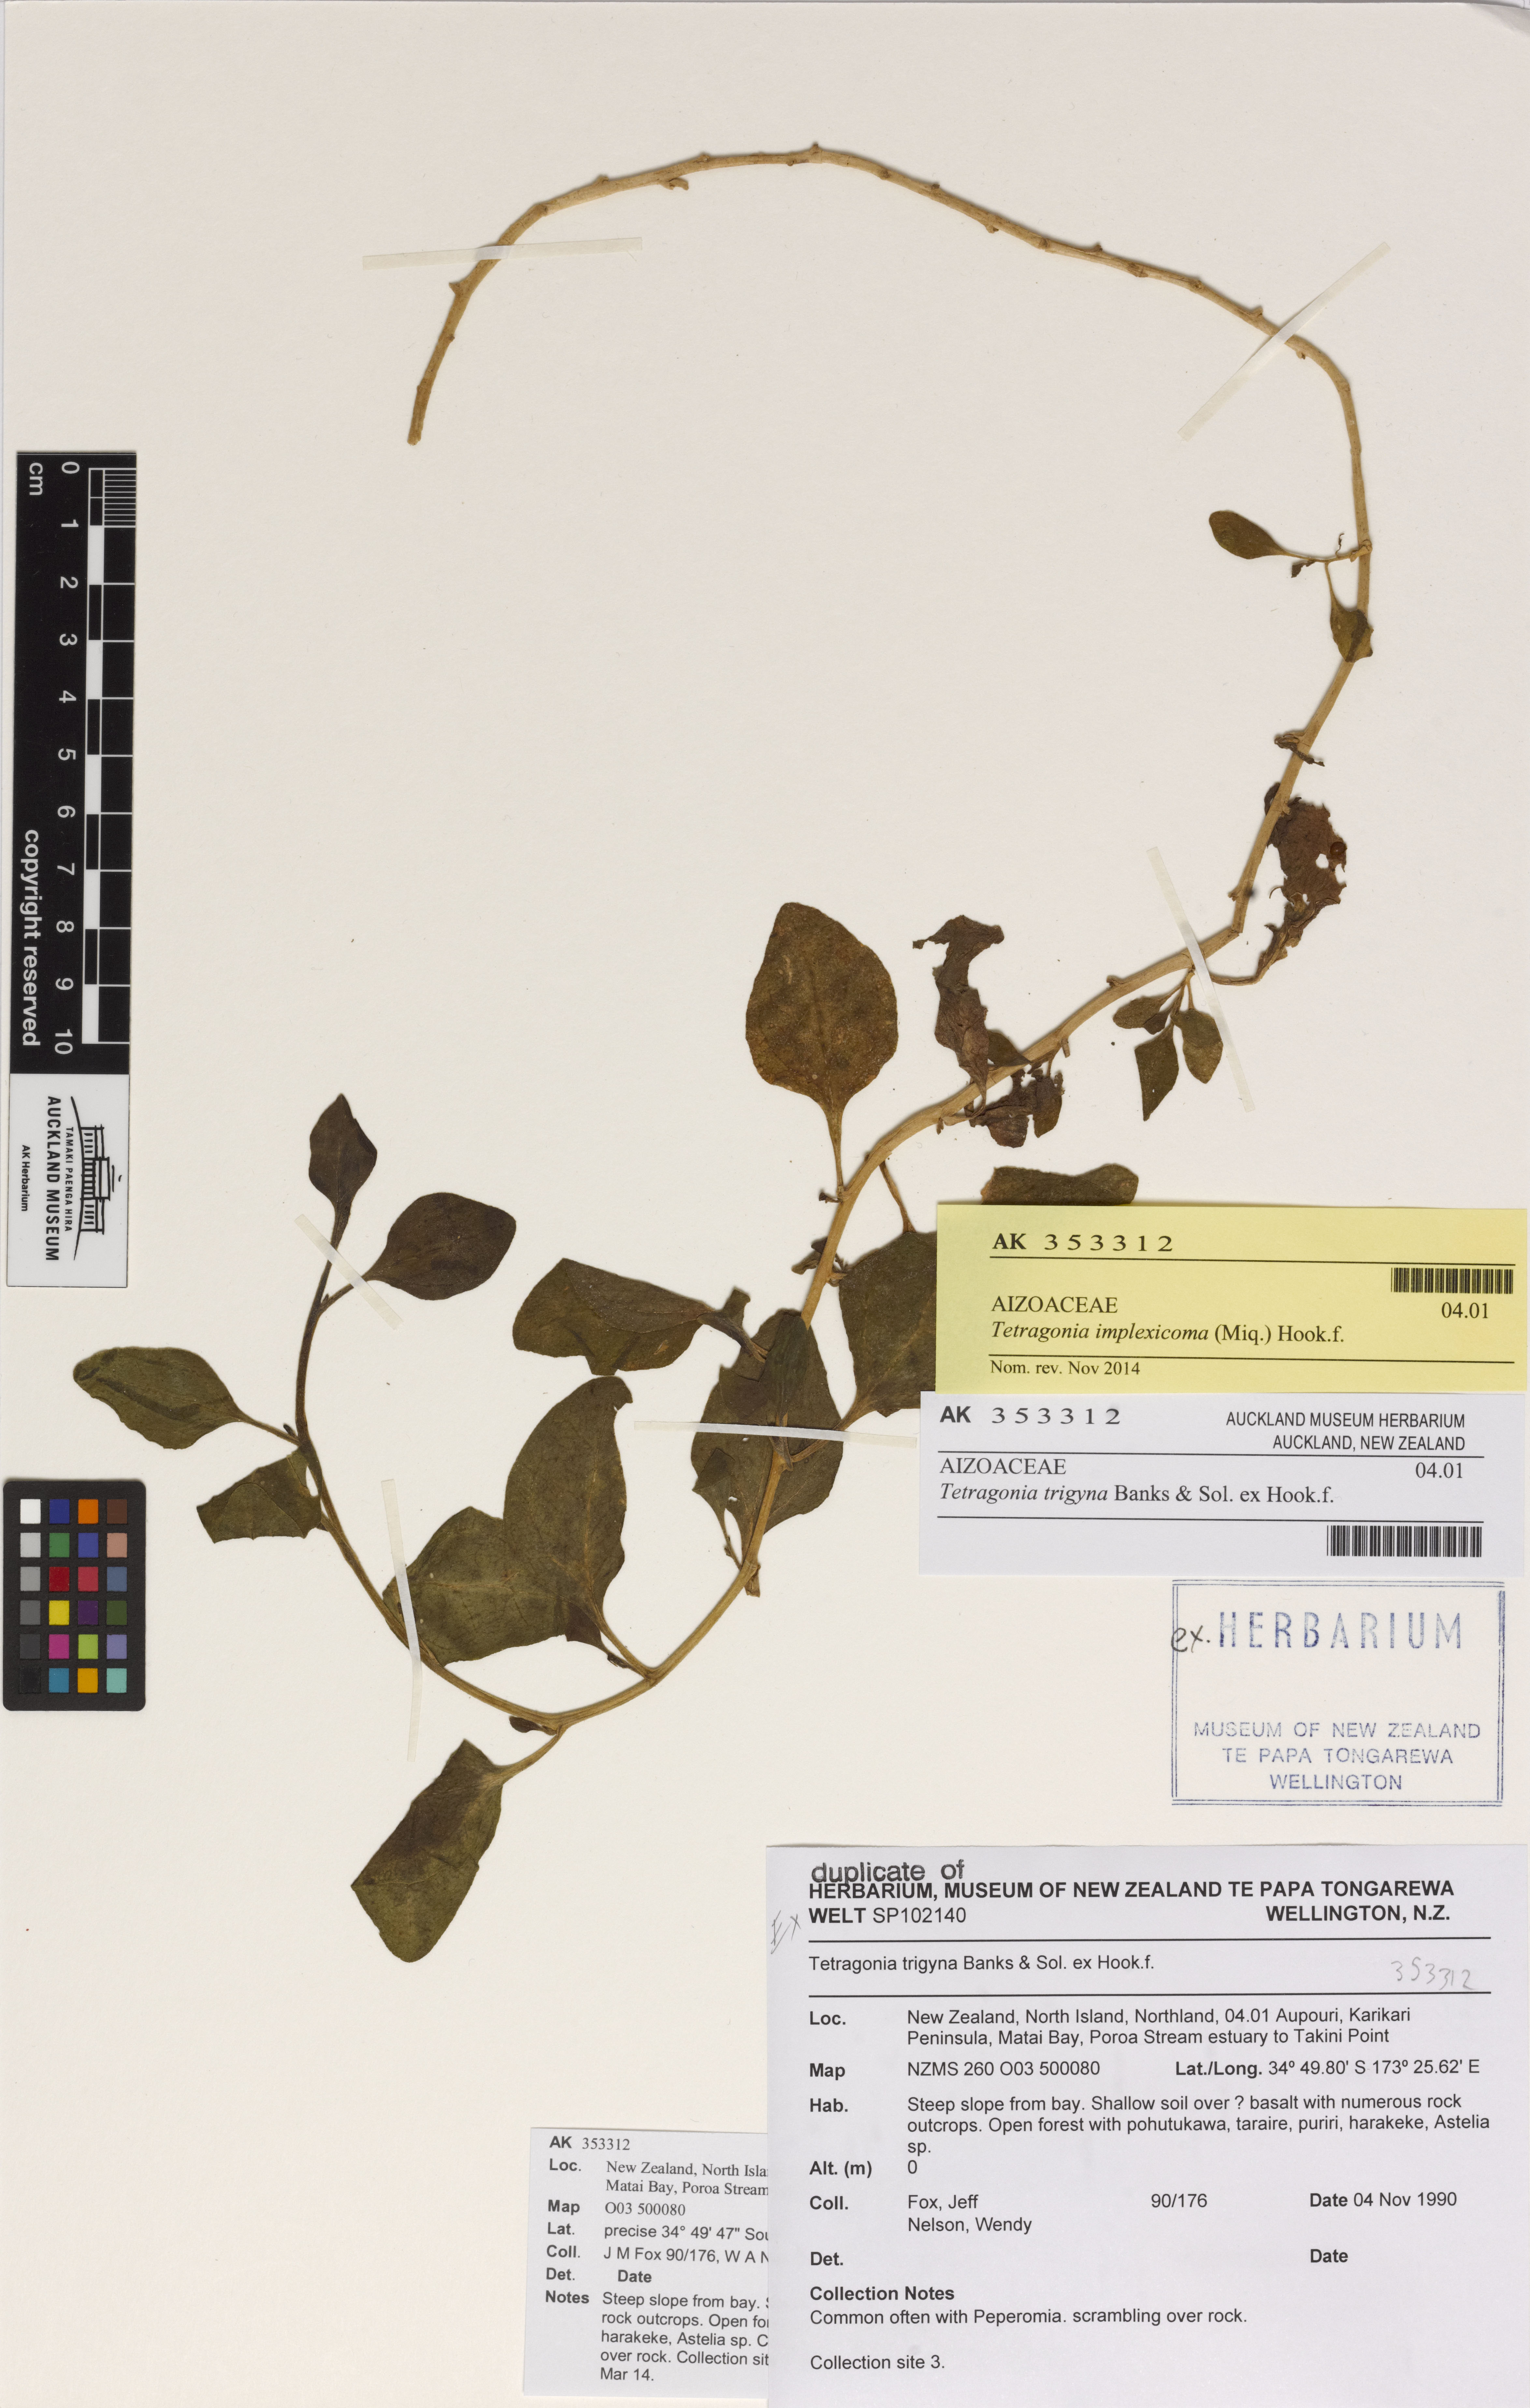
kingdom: Plantae
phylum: Tracheophyta
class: Magnoliopsida
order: Caryophyllales
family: Aizoaceae
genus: Tetragonia
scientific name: Tetragonia implexicoma
